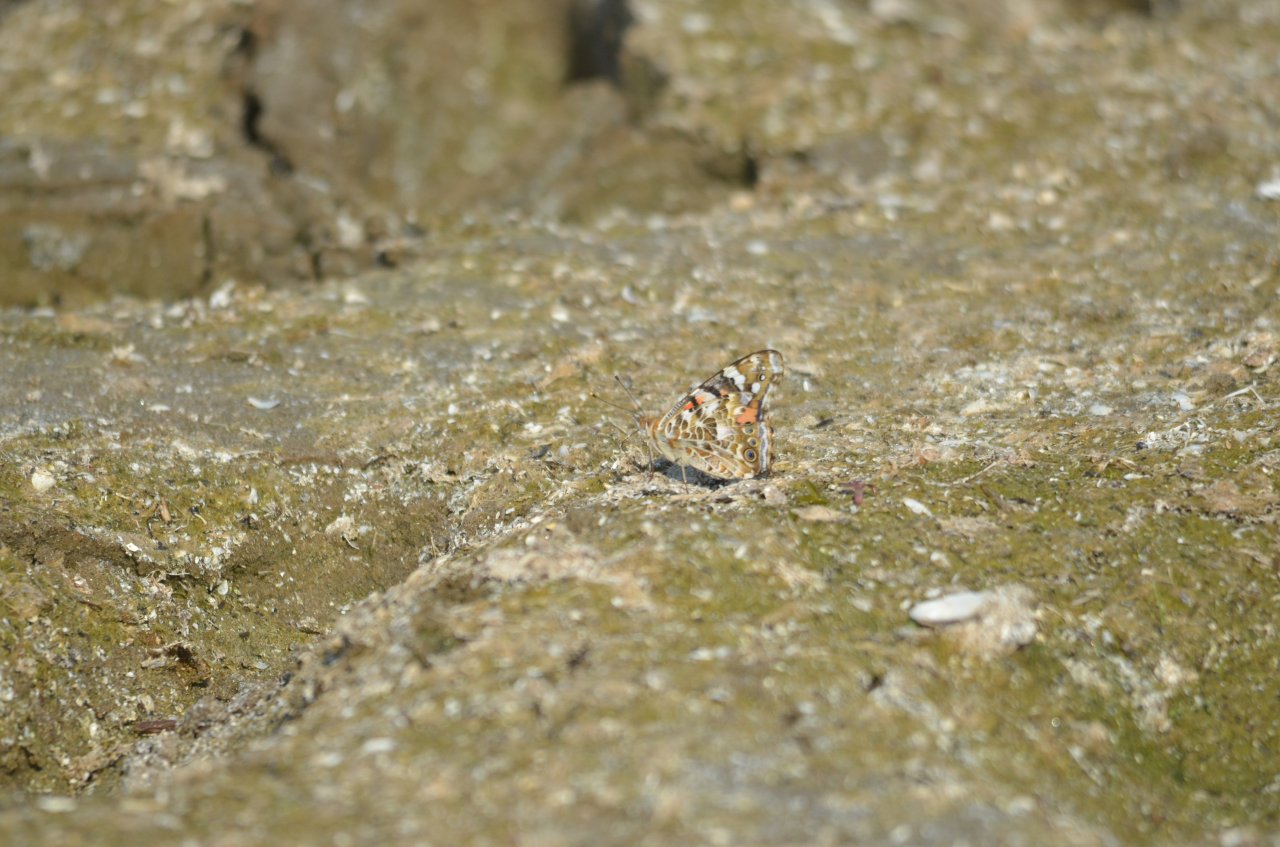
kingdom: Animalia
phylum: Arthropoda
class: Insecta
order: Lepidoptera
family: Nymphalidae
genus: Vanessa
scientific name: Vanessa cardui
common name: Painted Lady
